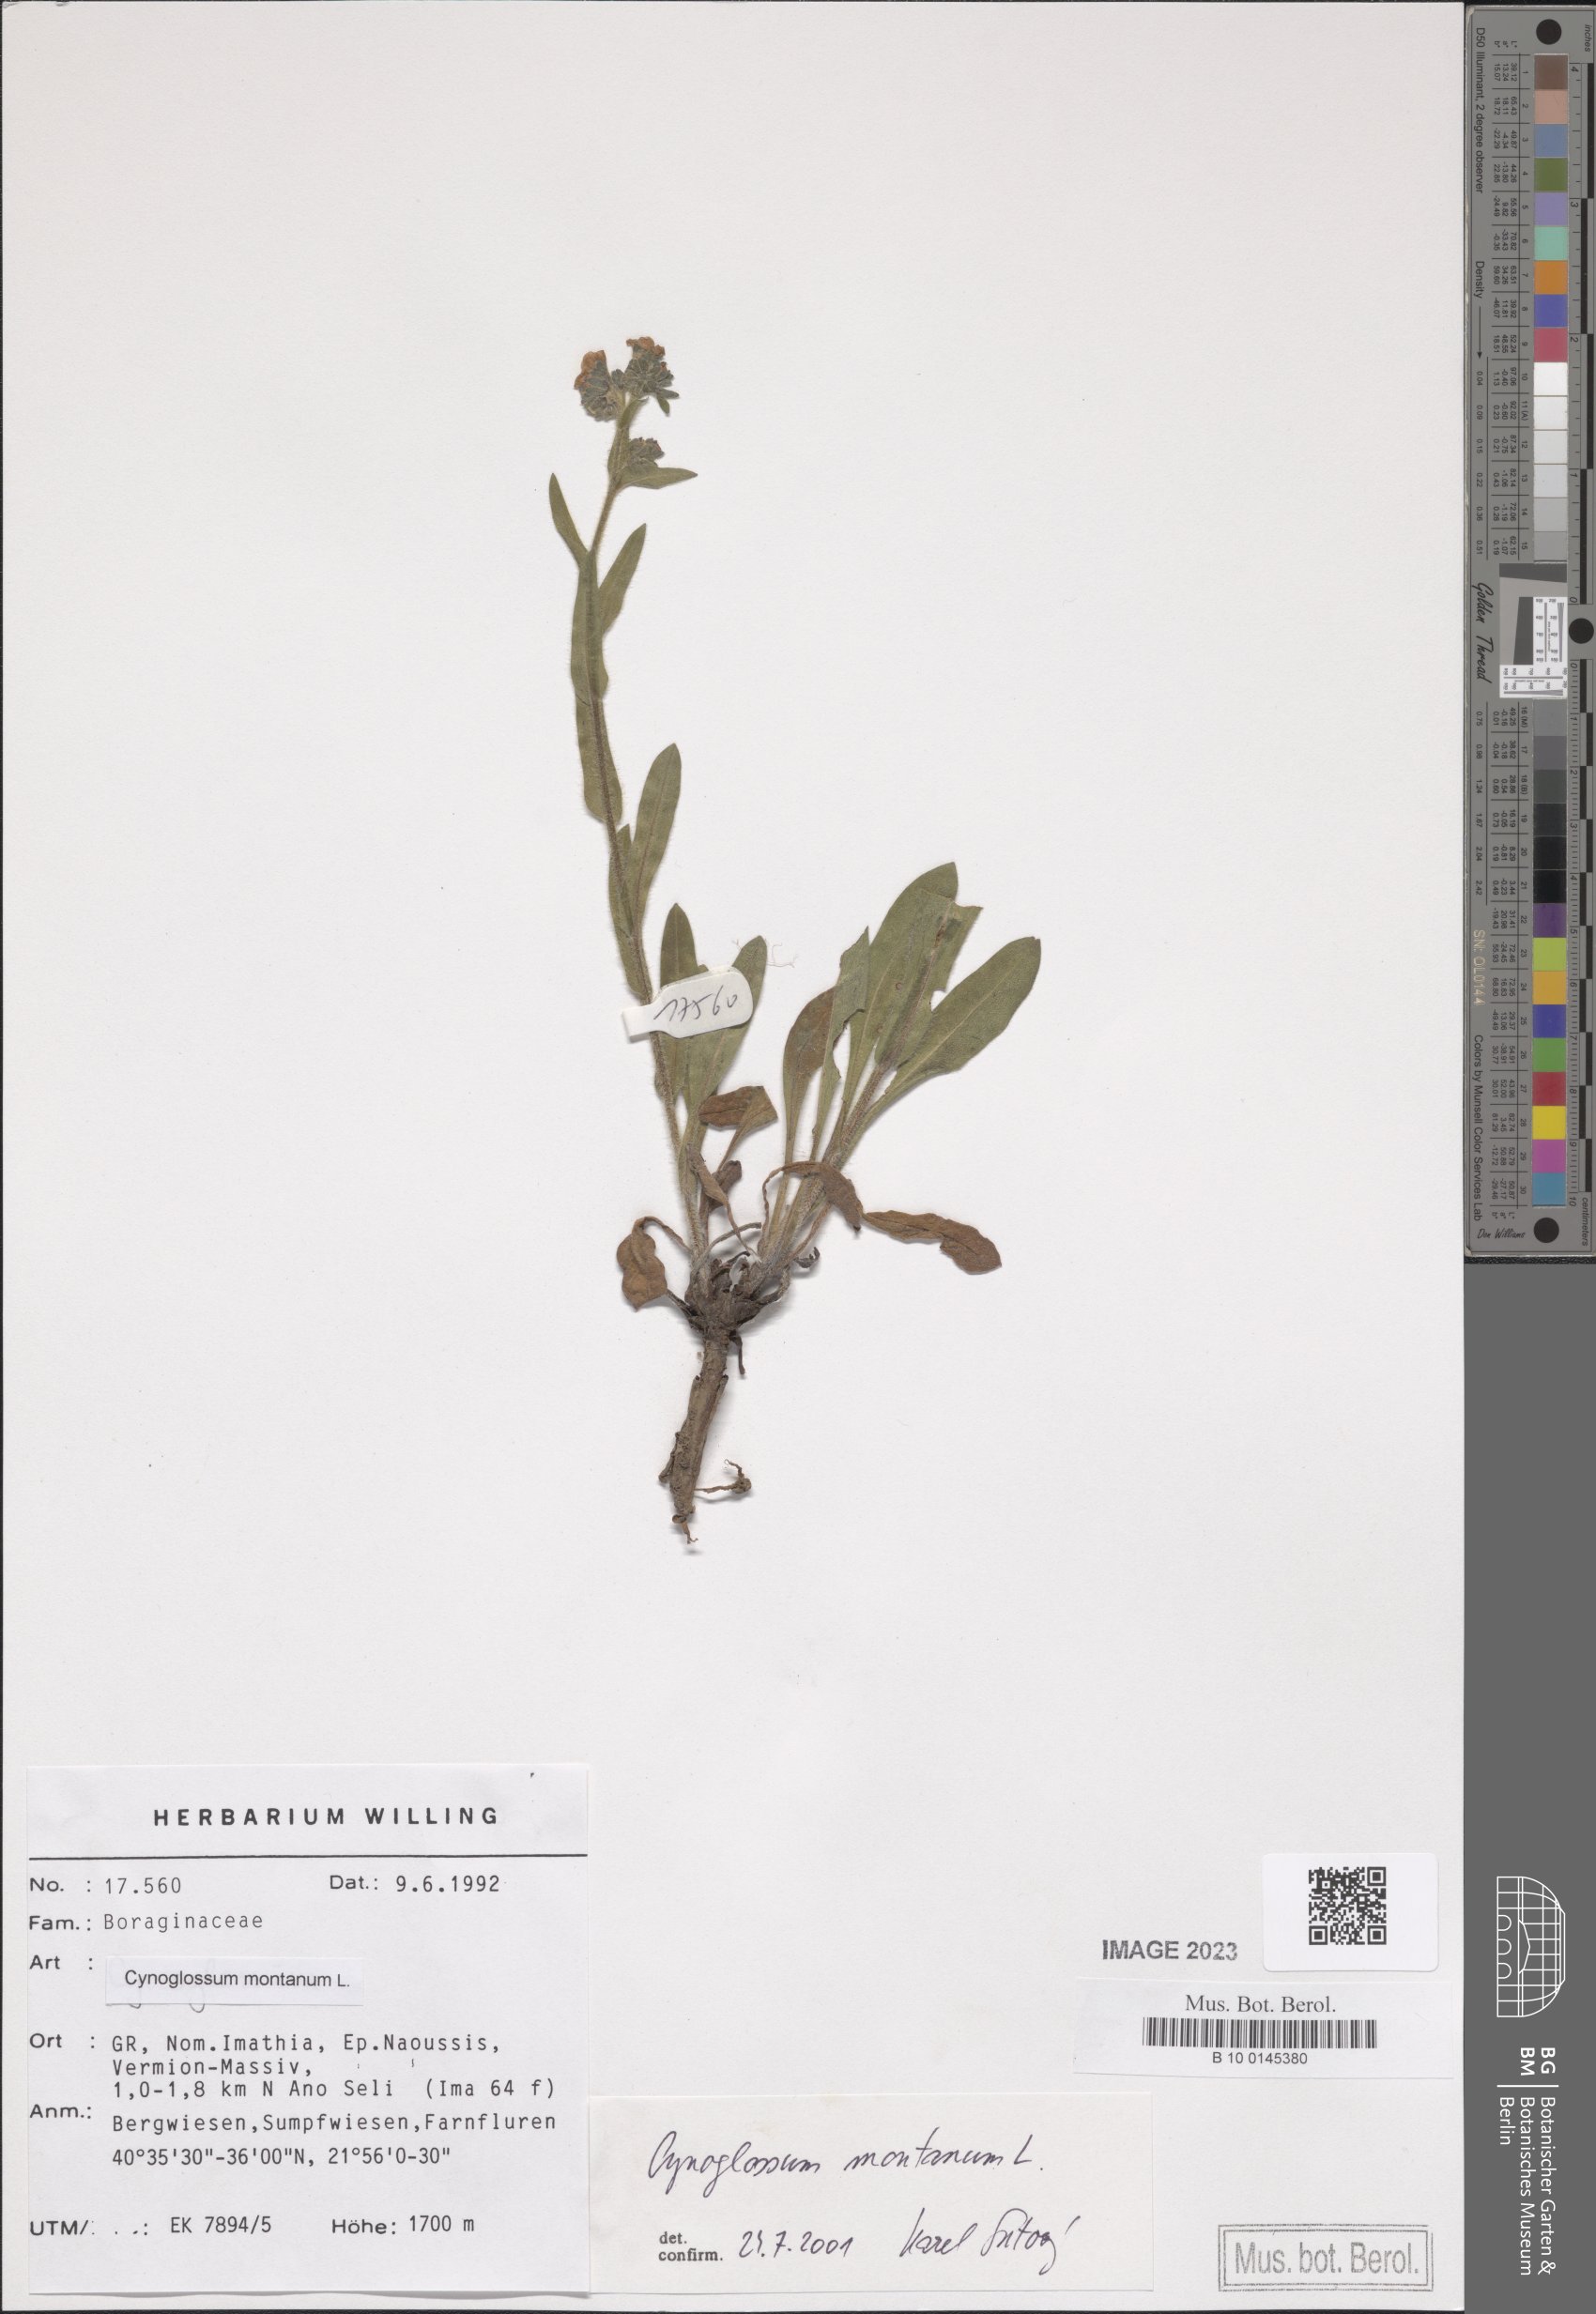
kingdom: Plantae
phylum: Tracheophyta
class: Magnoliopsida
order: Boraginales
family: Boraginaceae
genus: Cynoglossum
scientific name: Cynoglossum montanum
